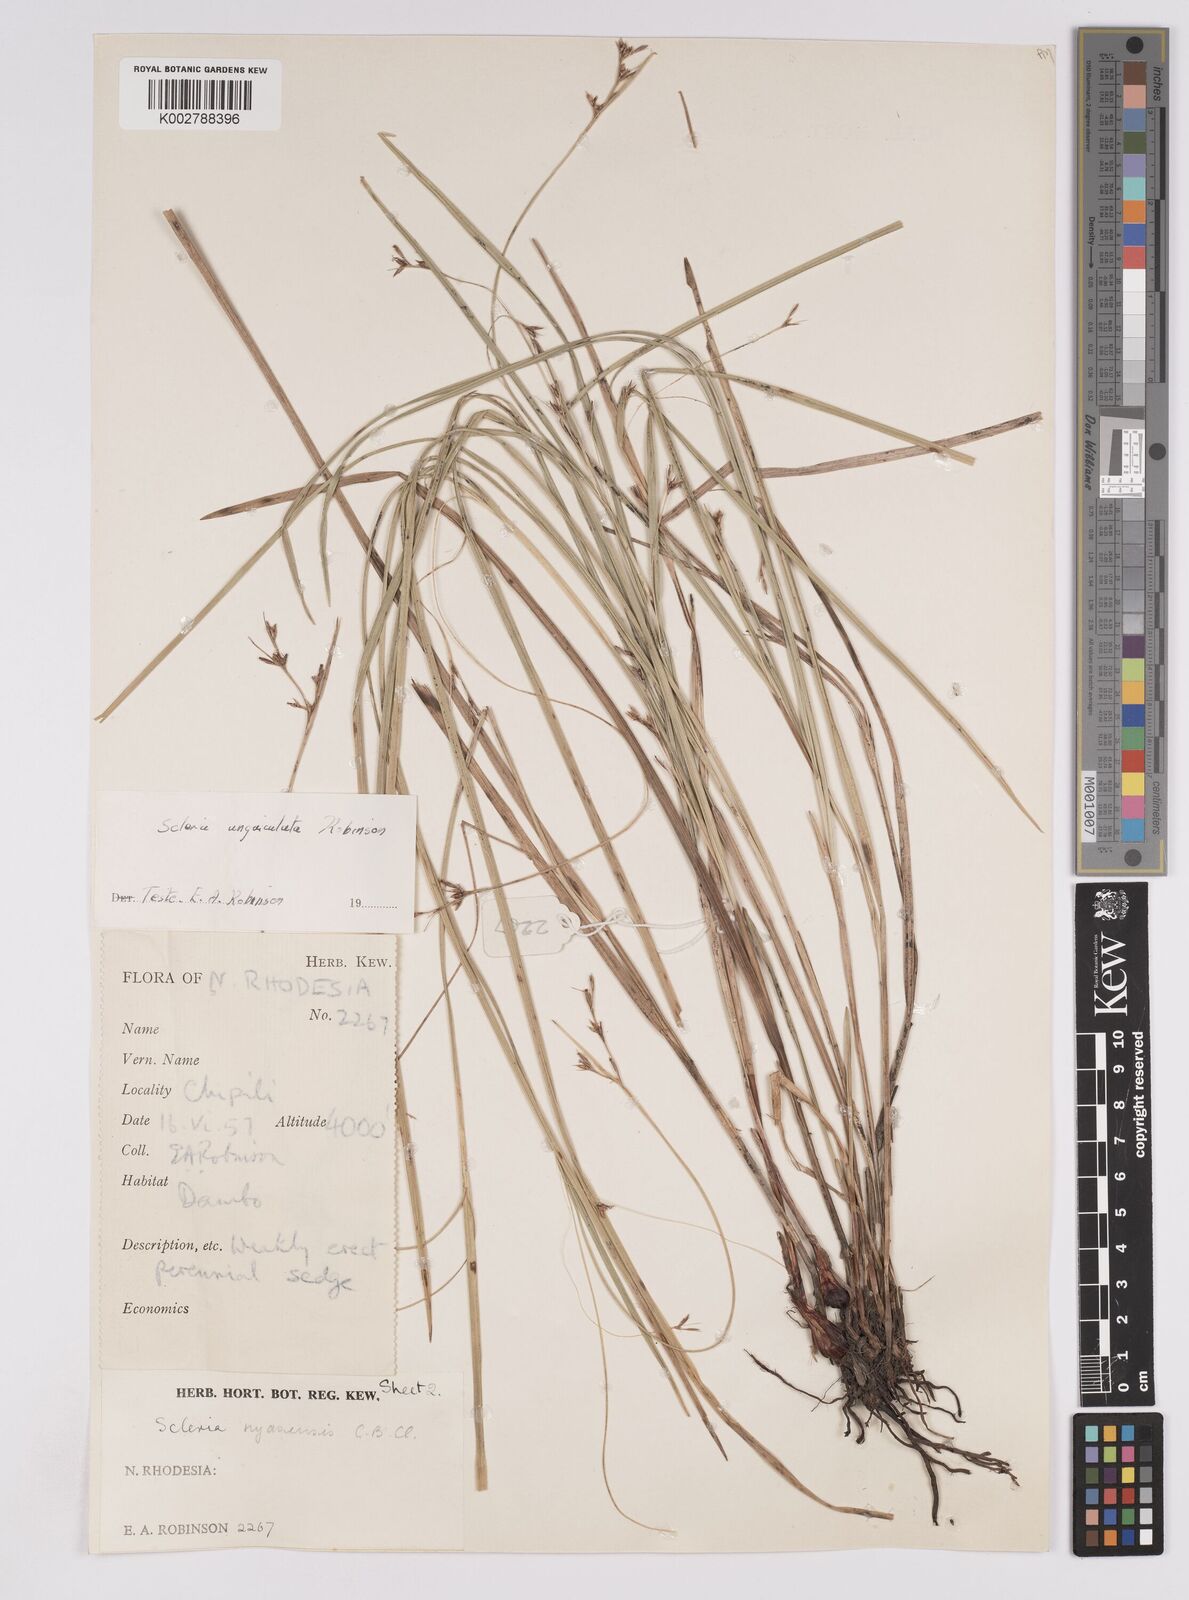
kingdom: Plantae
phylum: Tracheophyta
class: Liliopsida
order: Poales
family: Cyperaceae
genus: Scleria
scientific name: Scleria unguiculata
